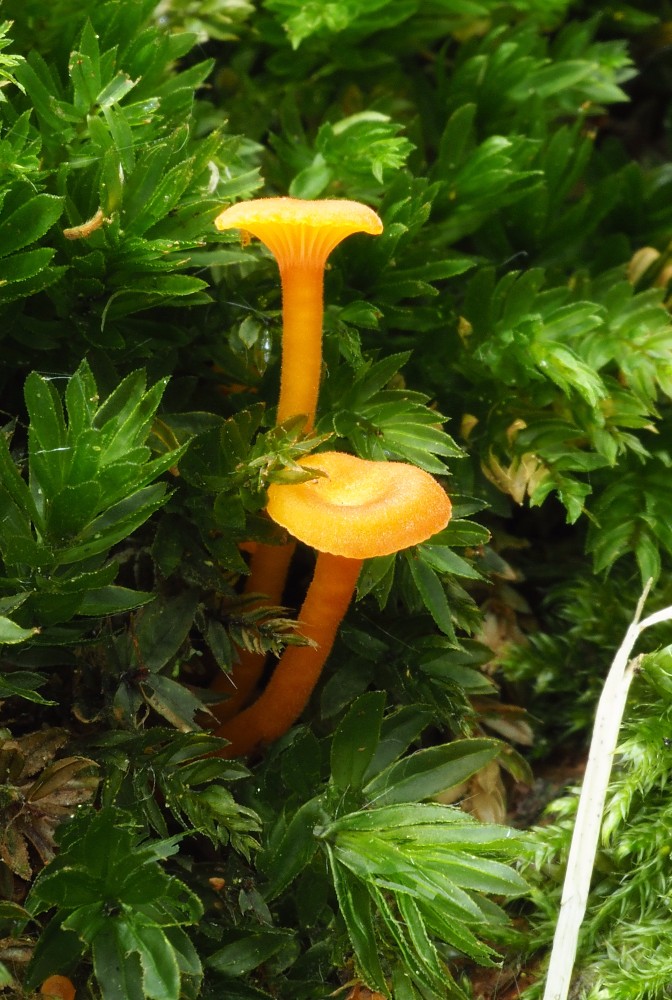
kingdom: Fungi
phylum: Basidiomycota
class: Agaricomycetes
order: Hymenochaetales
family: Rickenellaceae
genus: Rickenella
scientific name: Rickenella fibula
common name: orange mosnavlehat
